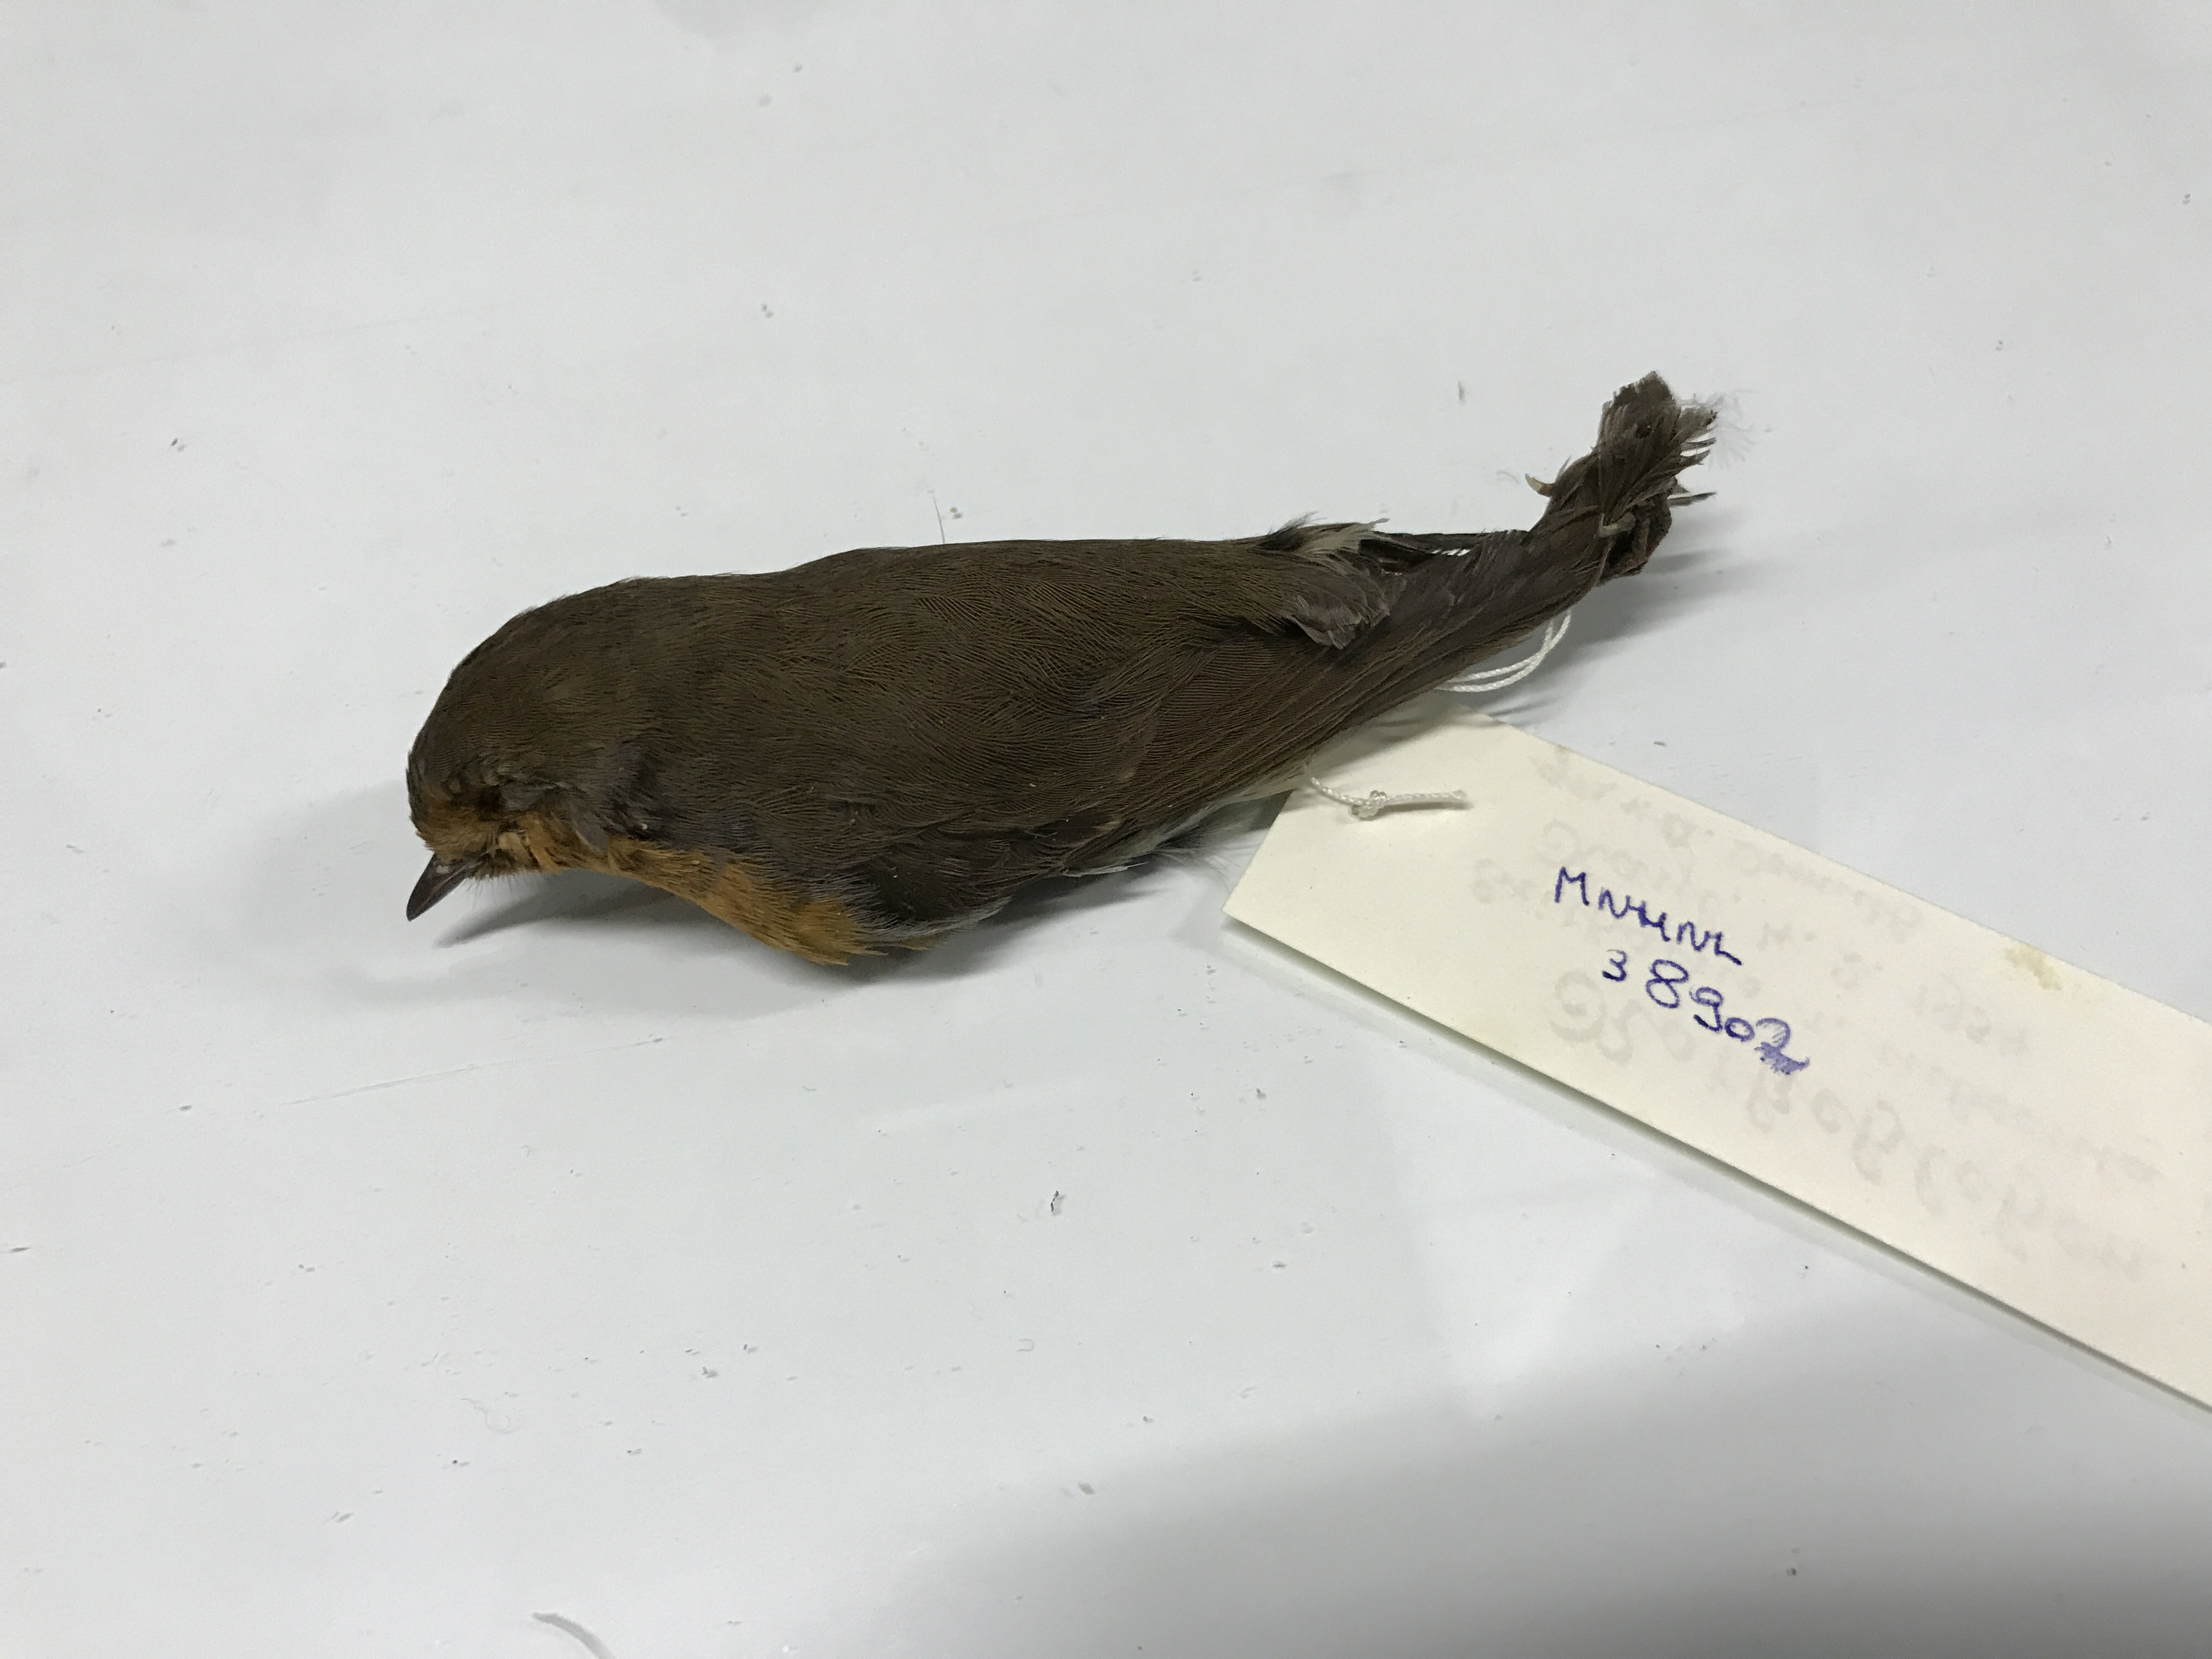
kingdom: Animalia
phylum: Chordata
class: Aves
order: Passeriformes
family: Muscicapidae
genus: Erithacus
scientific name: Erithacus rubecula
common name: European robin
